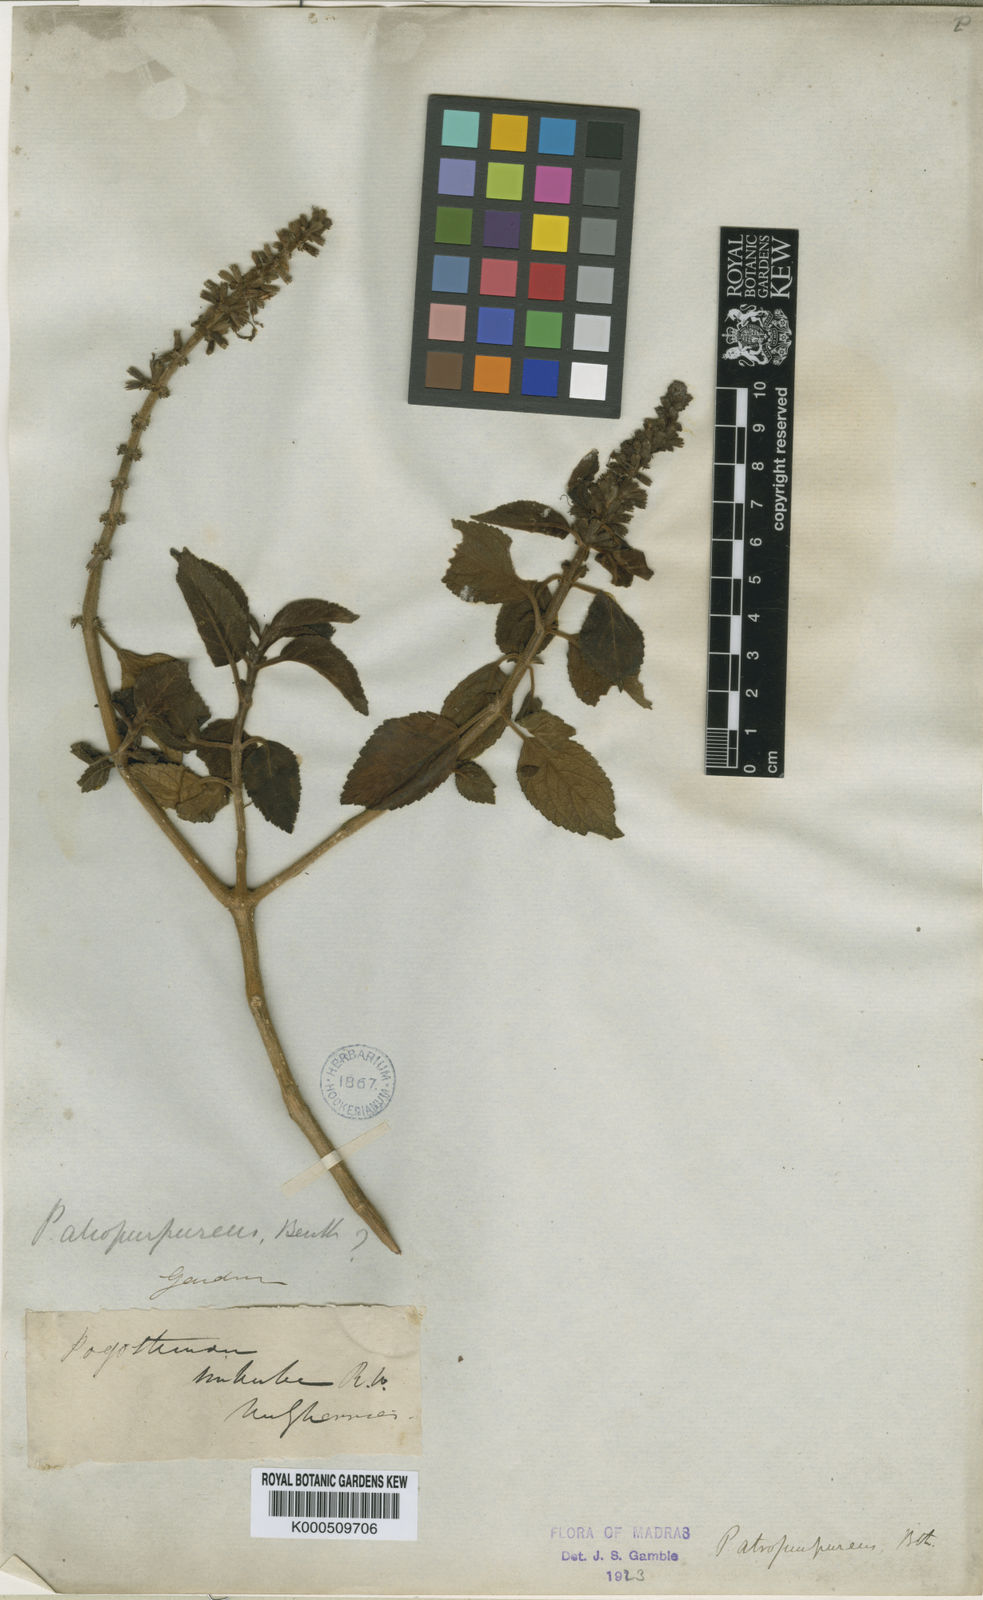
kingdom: Plantae
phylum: Tracheophyta
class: Magnoliopsida
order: Lamiales
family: Lamiaceae
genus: Pogostemon
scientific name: Pogostemon atropurpureus
